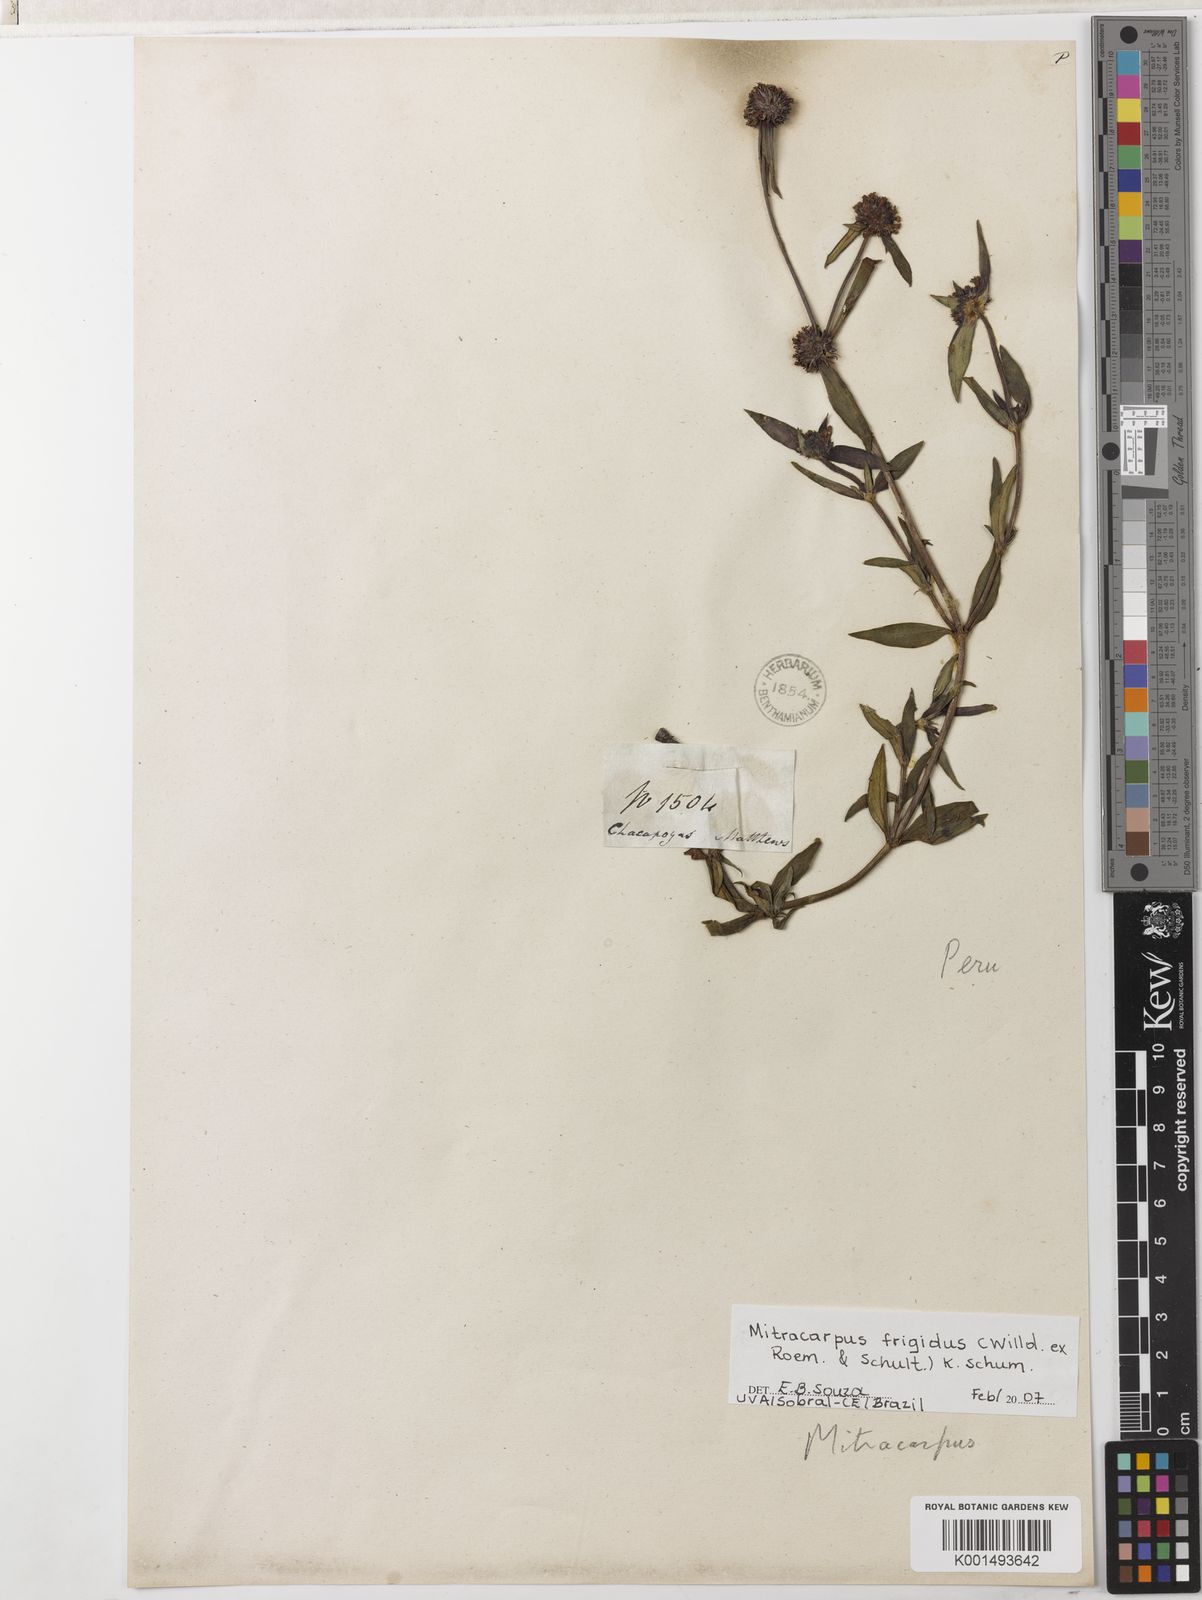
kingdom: Plantae
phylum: Tracheophyta
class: Magnoliopsida
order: Gentianales
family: Rubiaceae
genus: Mitracarpus
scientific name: Mitracarpus frigidus
